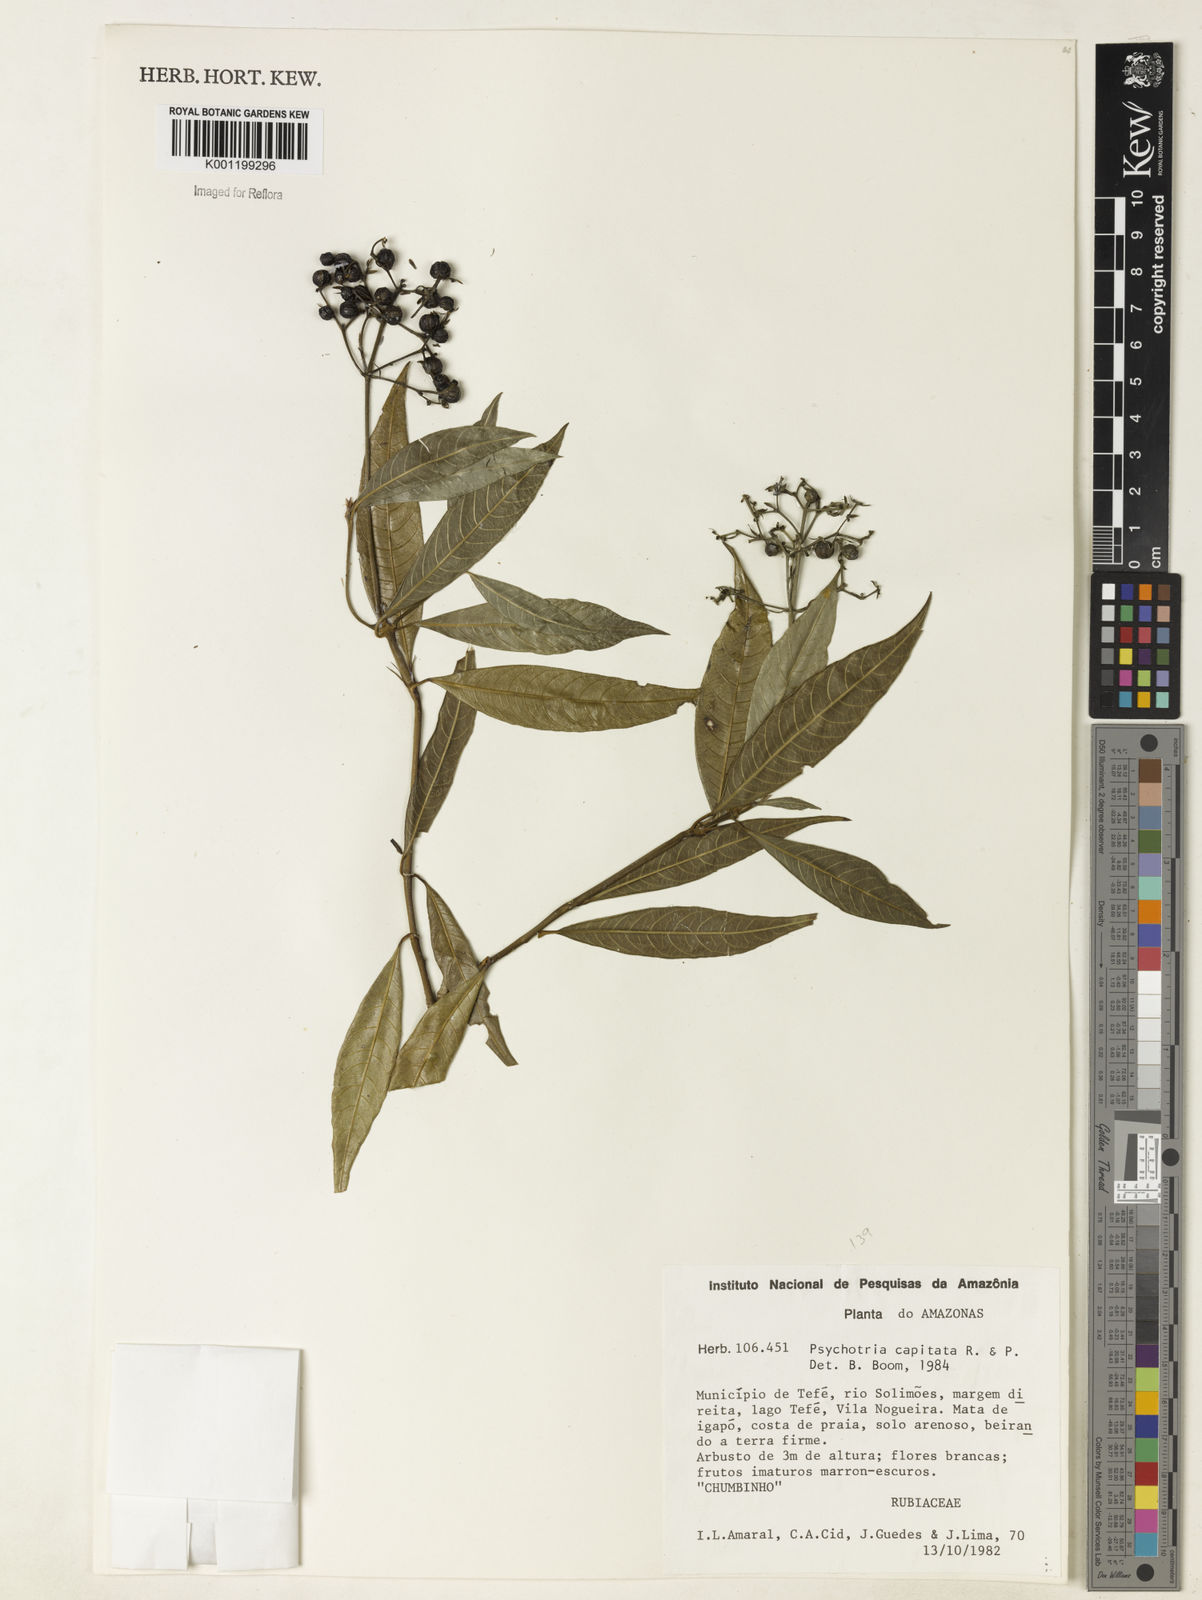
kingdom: Plantae
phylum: Tracheophyta
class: Magnoliopsida
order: Gentianales
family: Rubiaceae
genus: Palicourea
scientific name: Palicourea violacea
